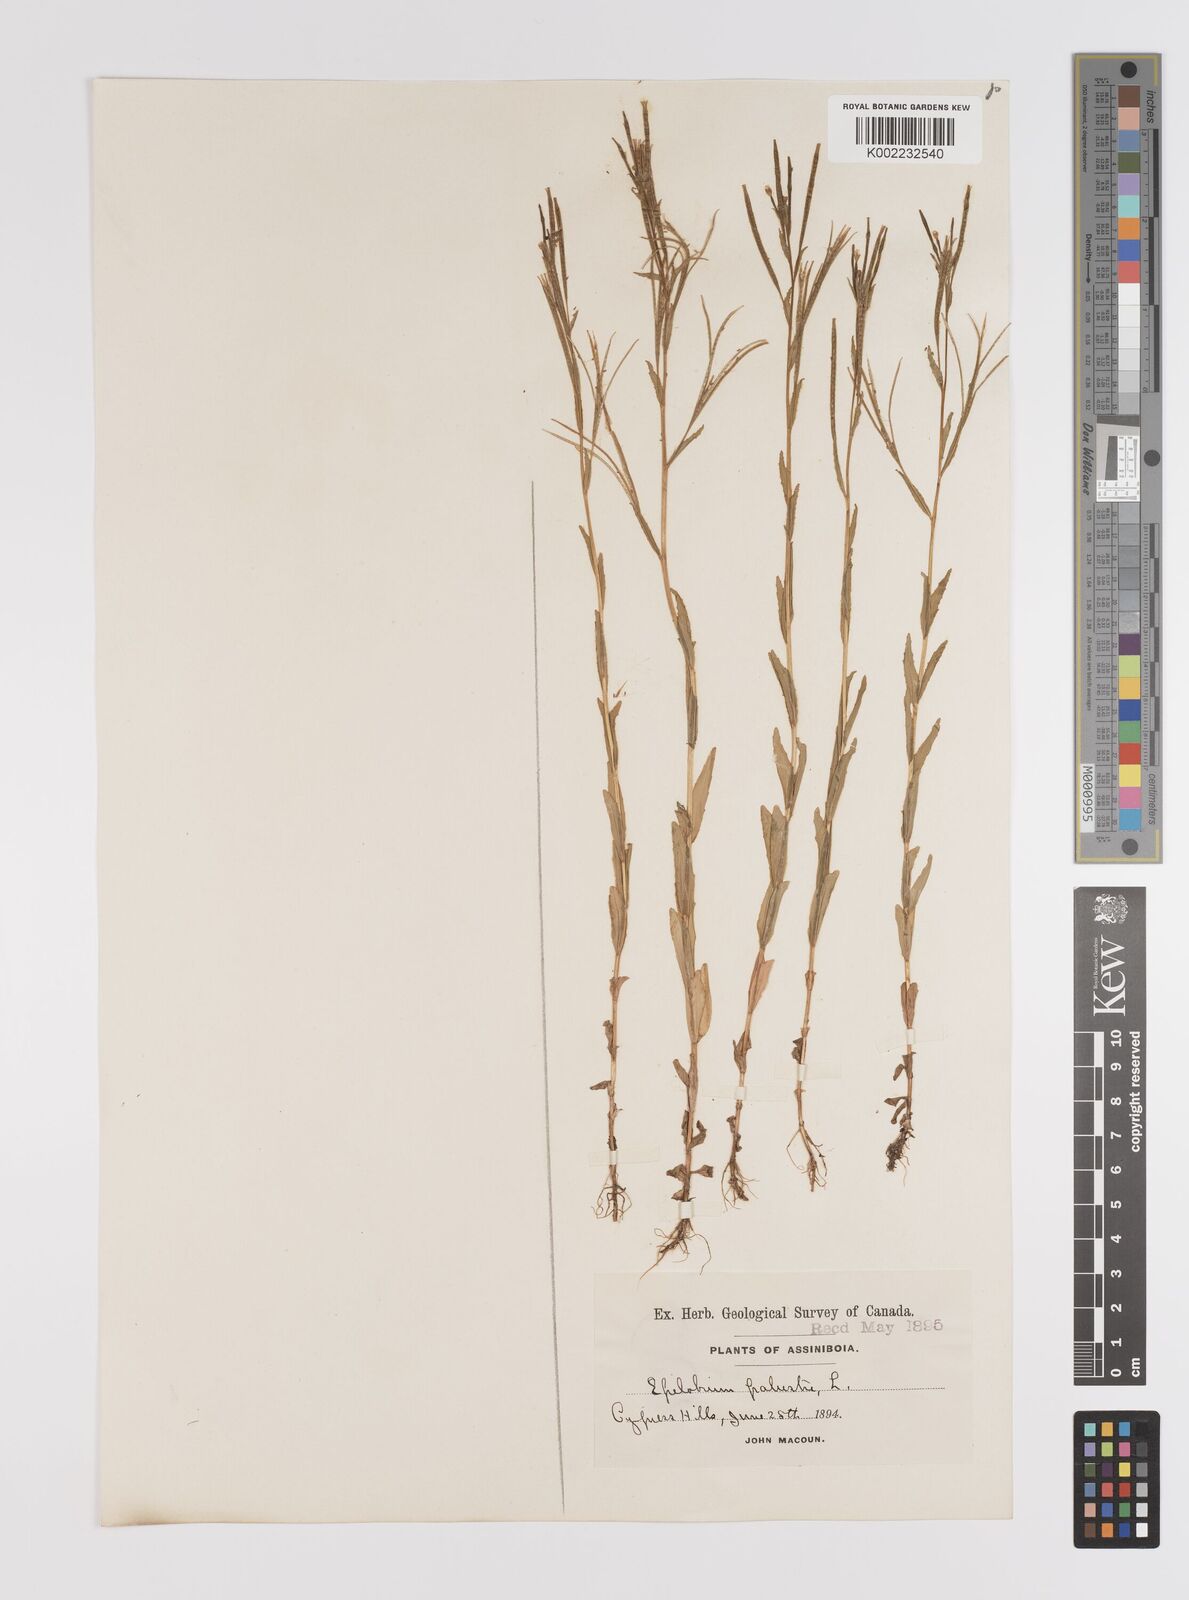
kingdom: Plantae
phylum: Tracheophyta
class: Magnoliopsida
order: Myrtales
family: Onagraceae
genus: Epilobium
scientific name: Epilobium palustre
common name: Marsh willowherb
